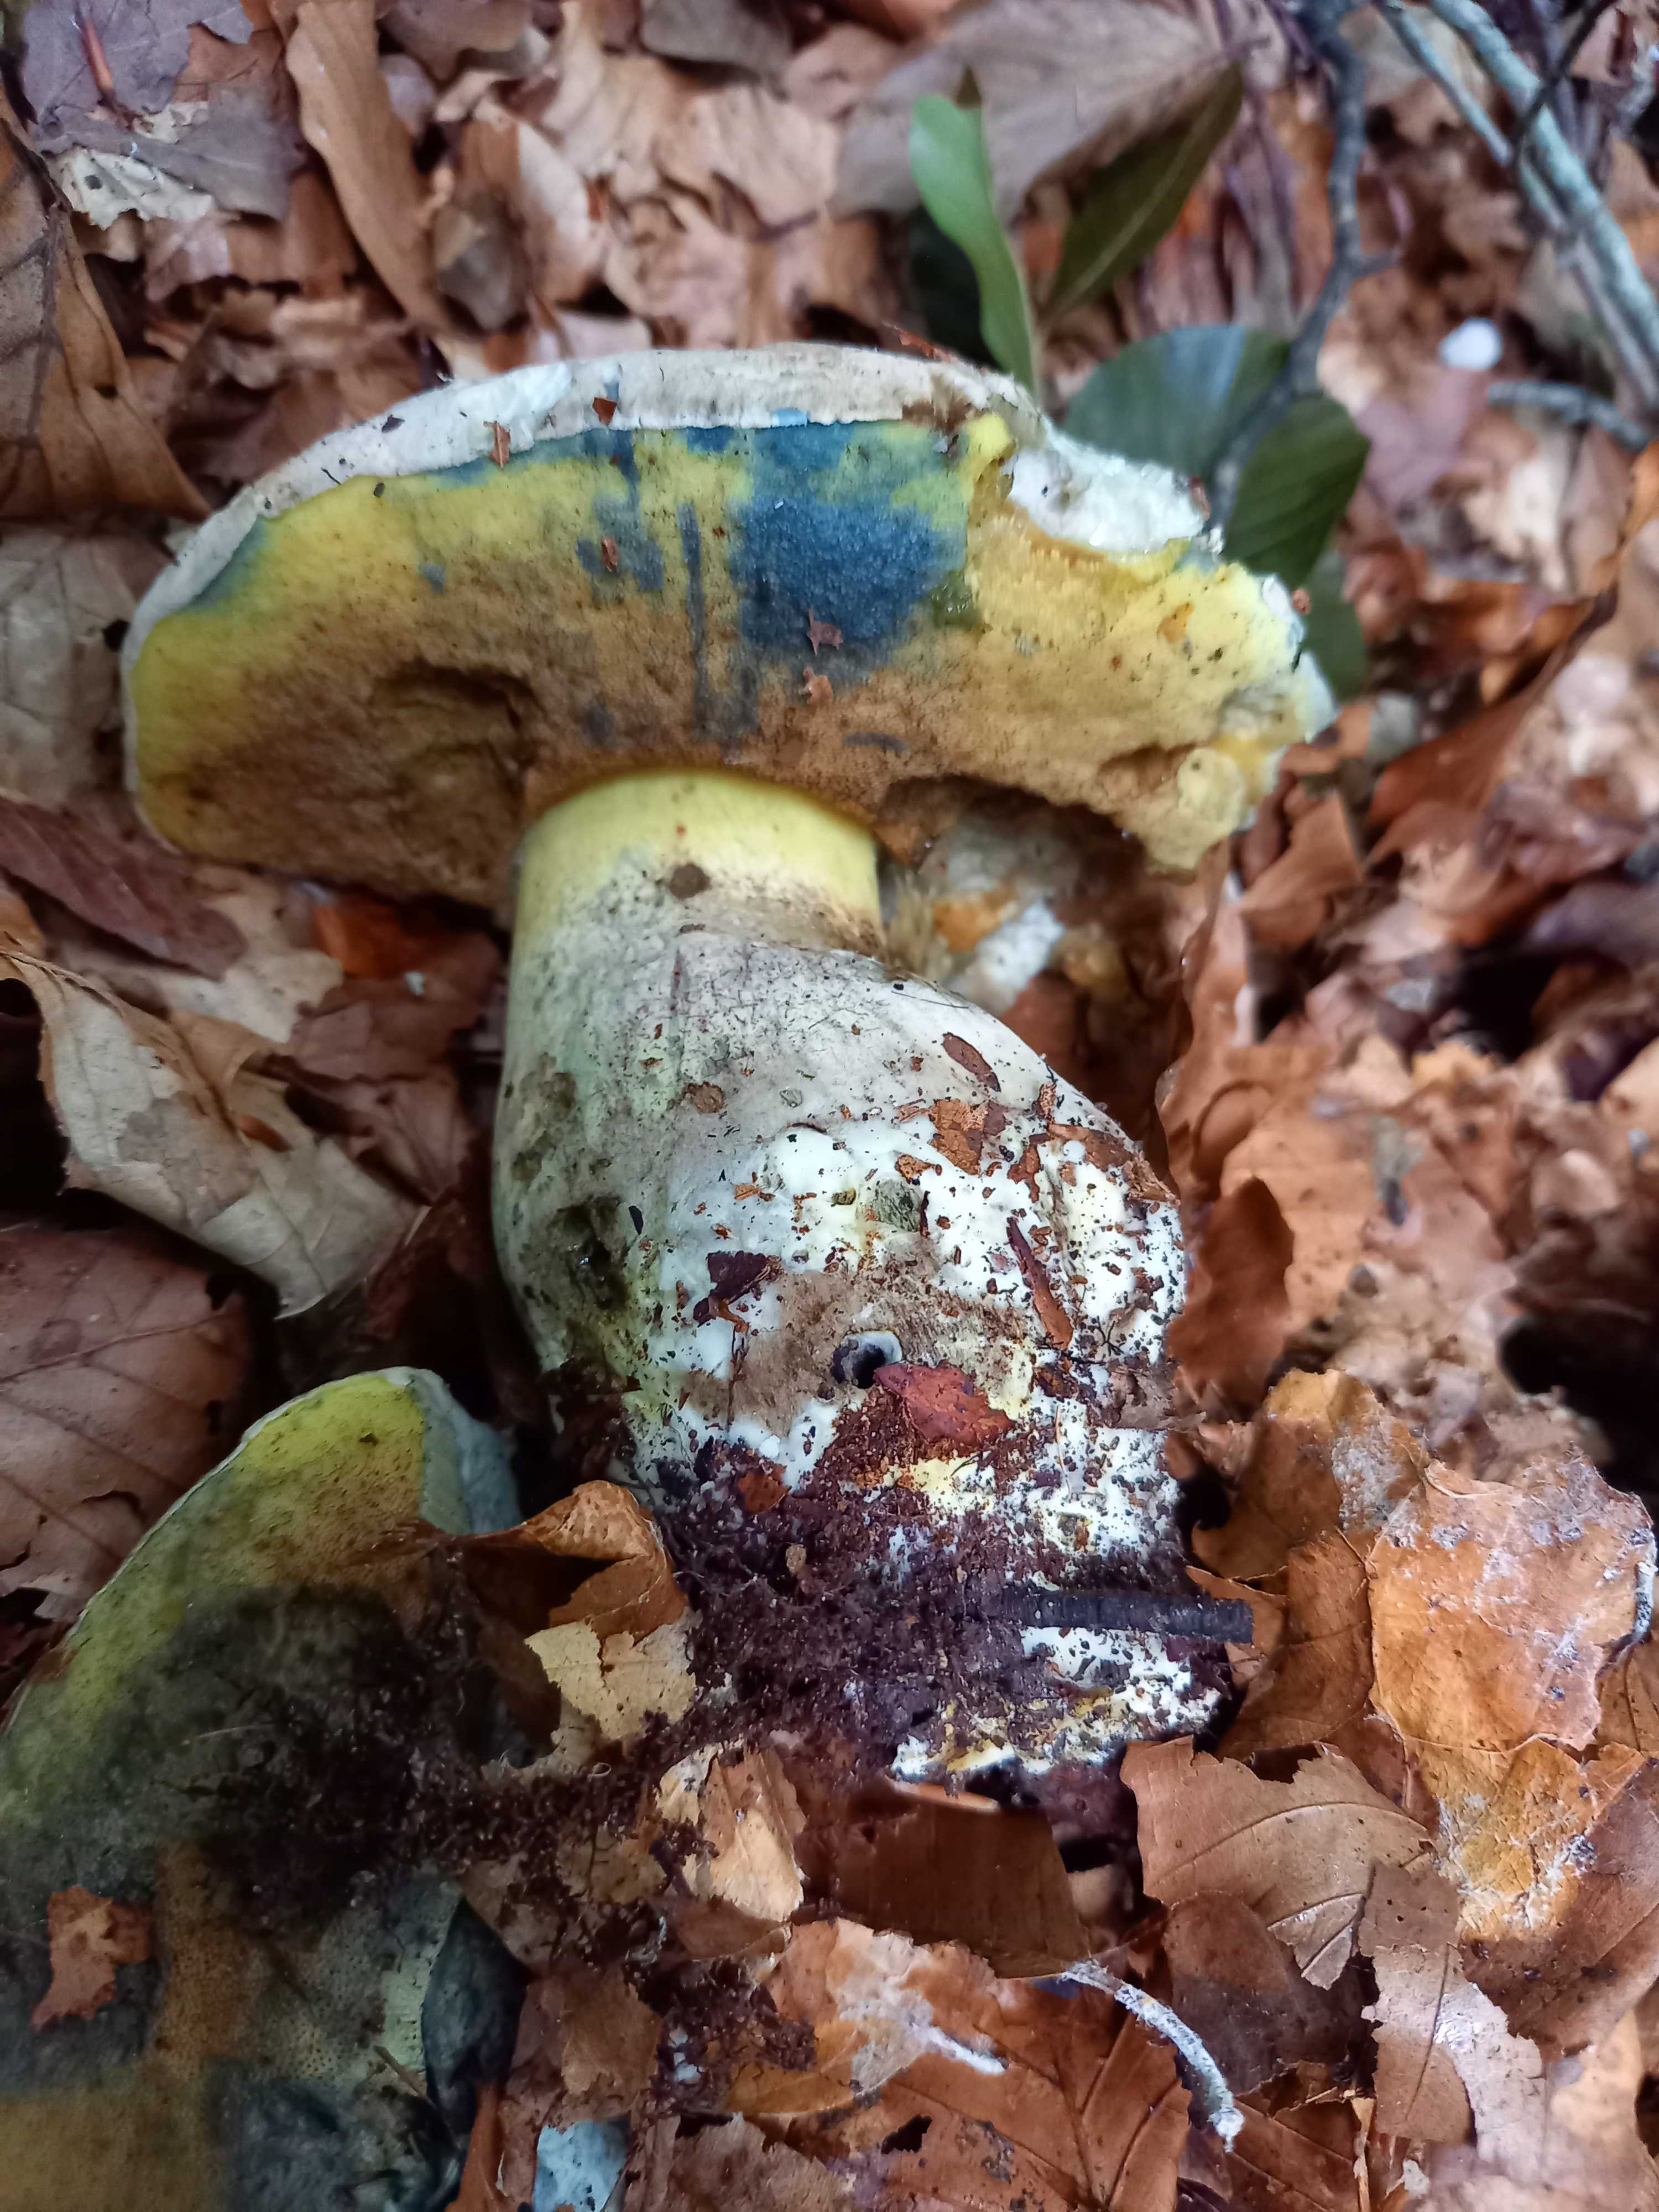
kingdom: Fungi
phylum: Basidiomycota
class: Agaricomycetes
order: Boletales
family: Boletaceae
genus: Caloboletus
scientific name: Caloboletus radicans
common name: rod-rørhat
